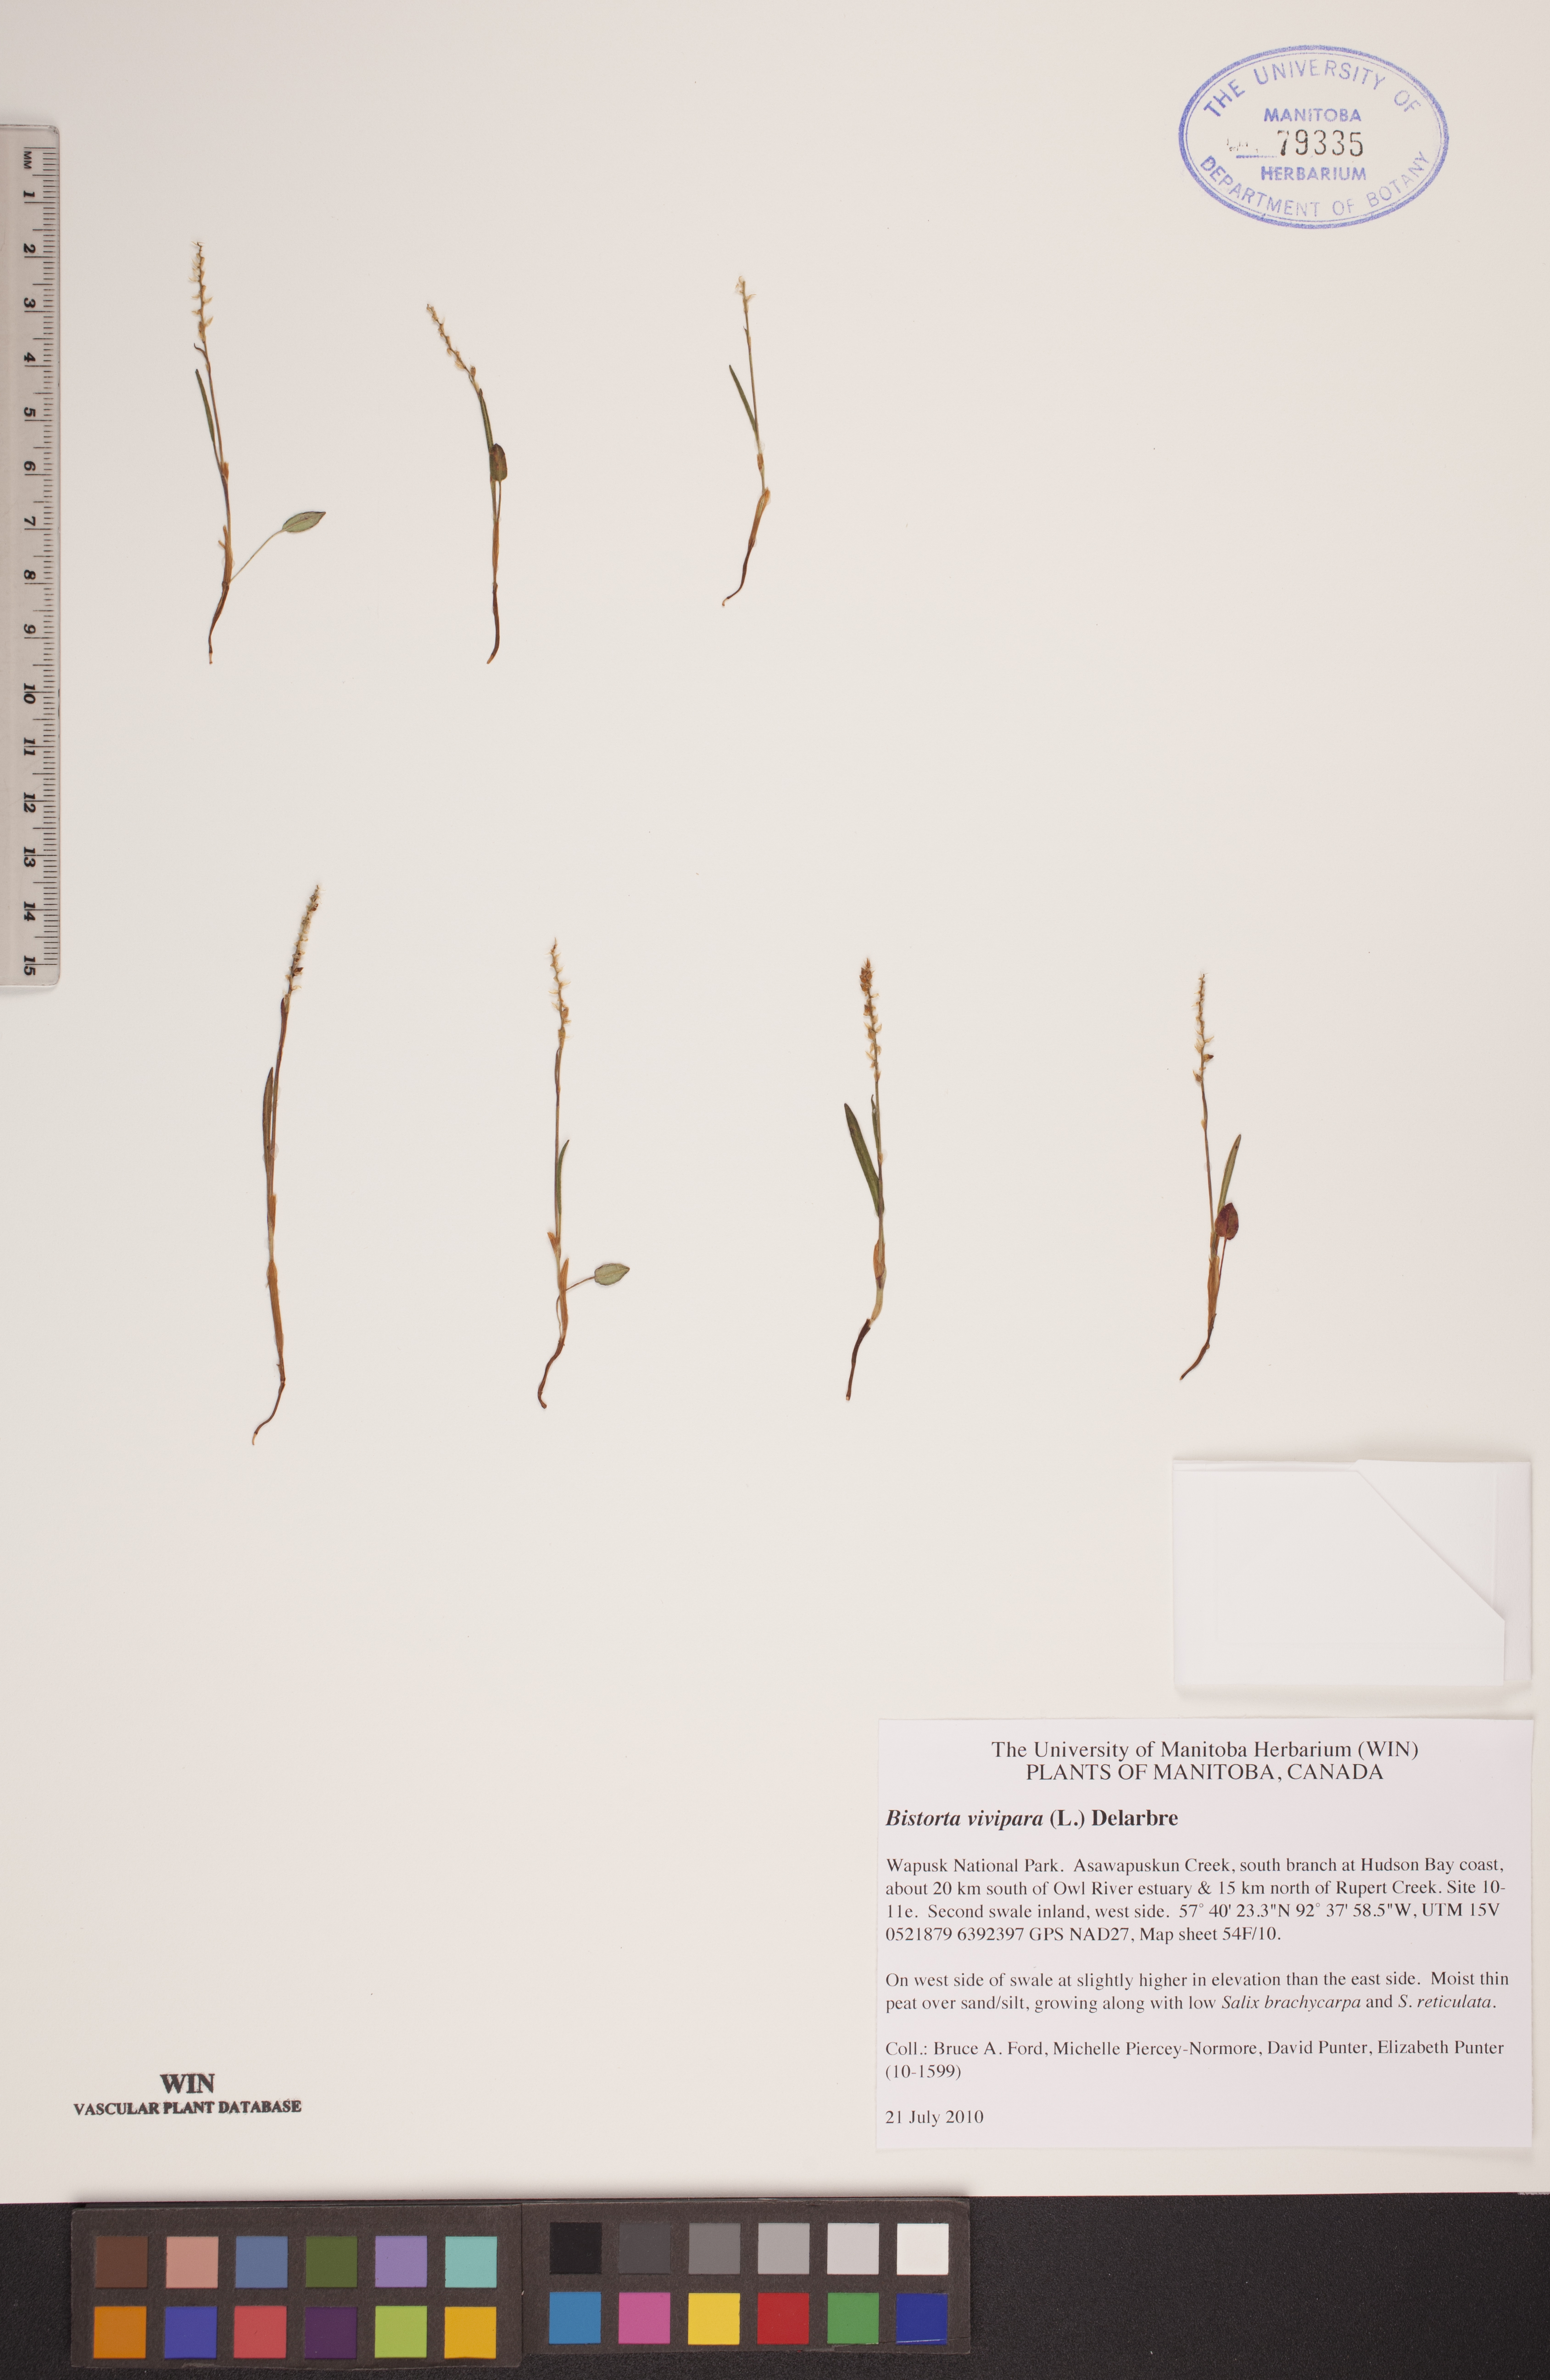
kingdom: Plantae
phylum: Tracheophyta
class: Magnoliopsida
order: Caryophyllales
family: Polygonaceae
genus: Bistorta
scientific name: Bistorta vivipara
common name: Alpine bistort
